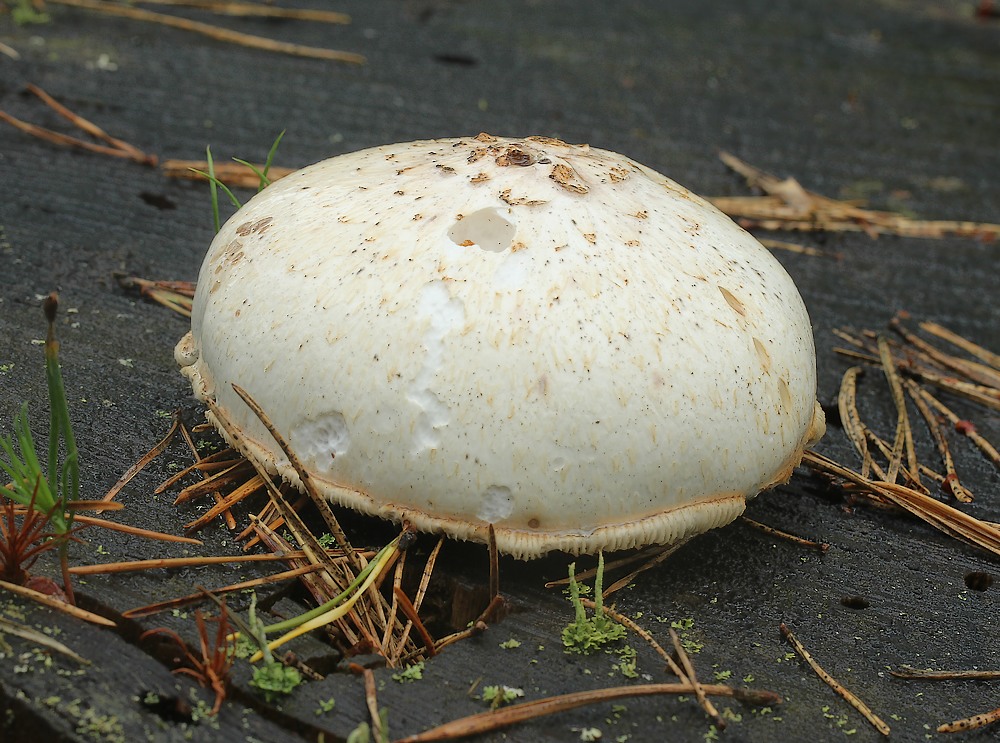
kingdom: Fungi
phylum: Basidiomycota
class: Agaricomycetes
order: Gloeophyllales
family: Gloeophyllaceae
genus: Neolentinus
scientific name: Neolentinus lepideus
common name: skællet sejhat
